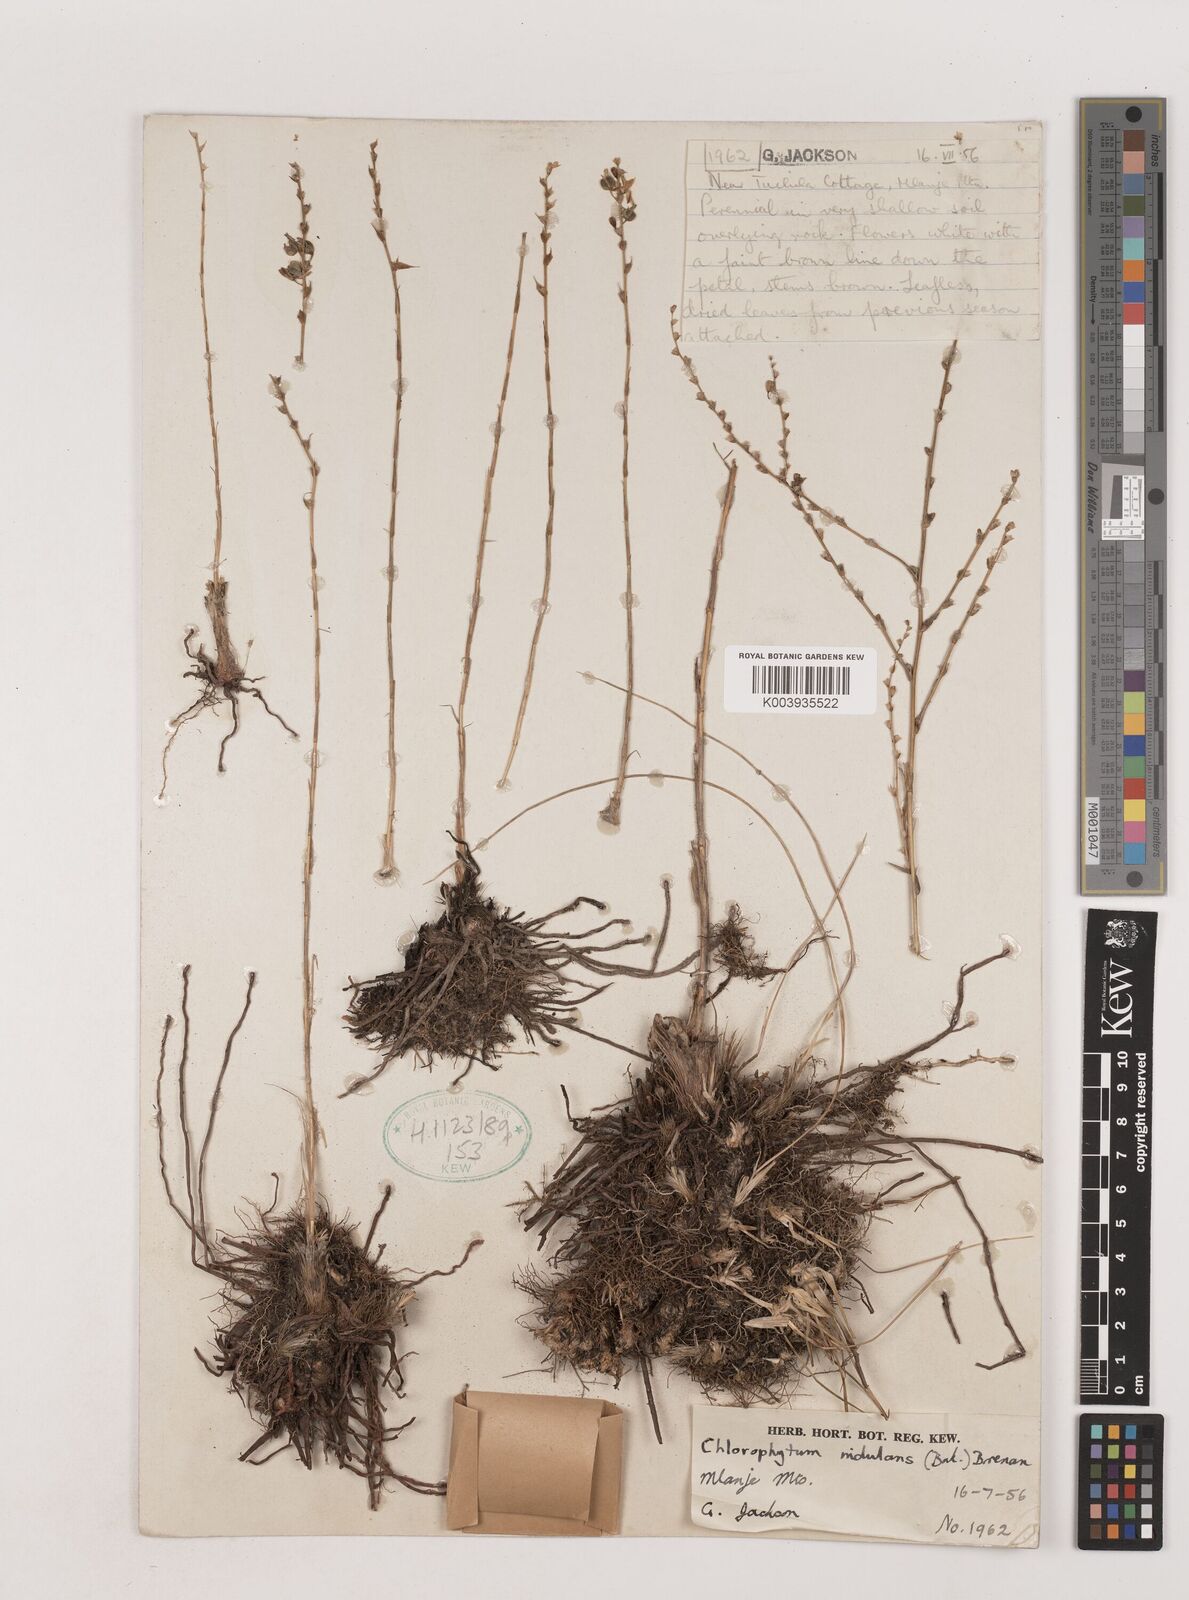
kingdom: Plantae
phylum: Tracheophyta
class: Liliopsida
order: Asparagales
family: Asparagaceae
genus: Chlorophytum
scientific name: Chlorophytum nidulans
